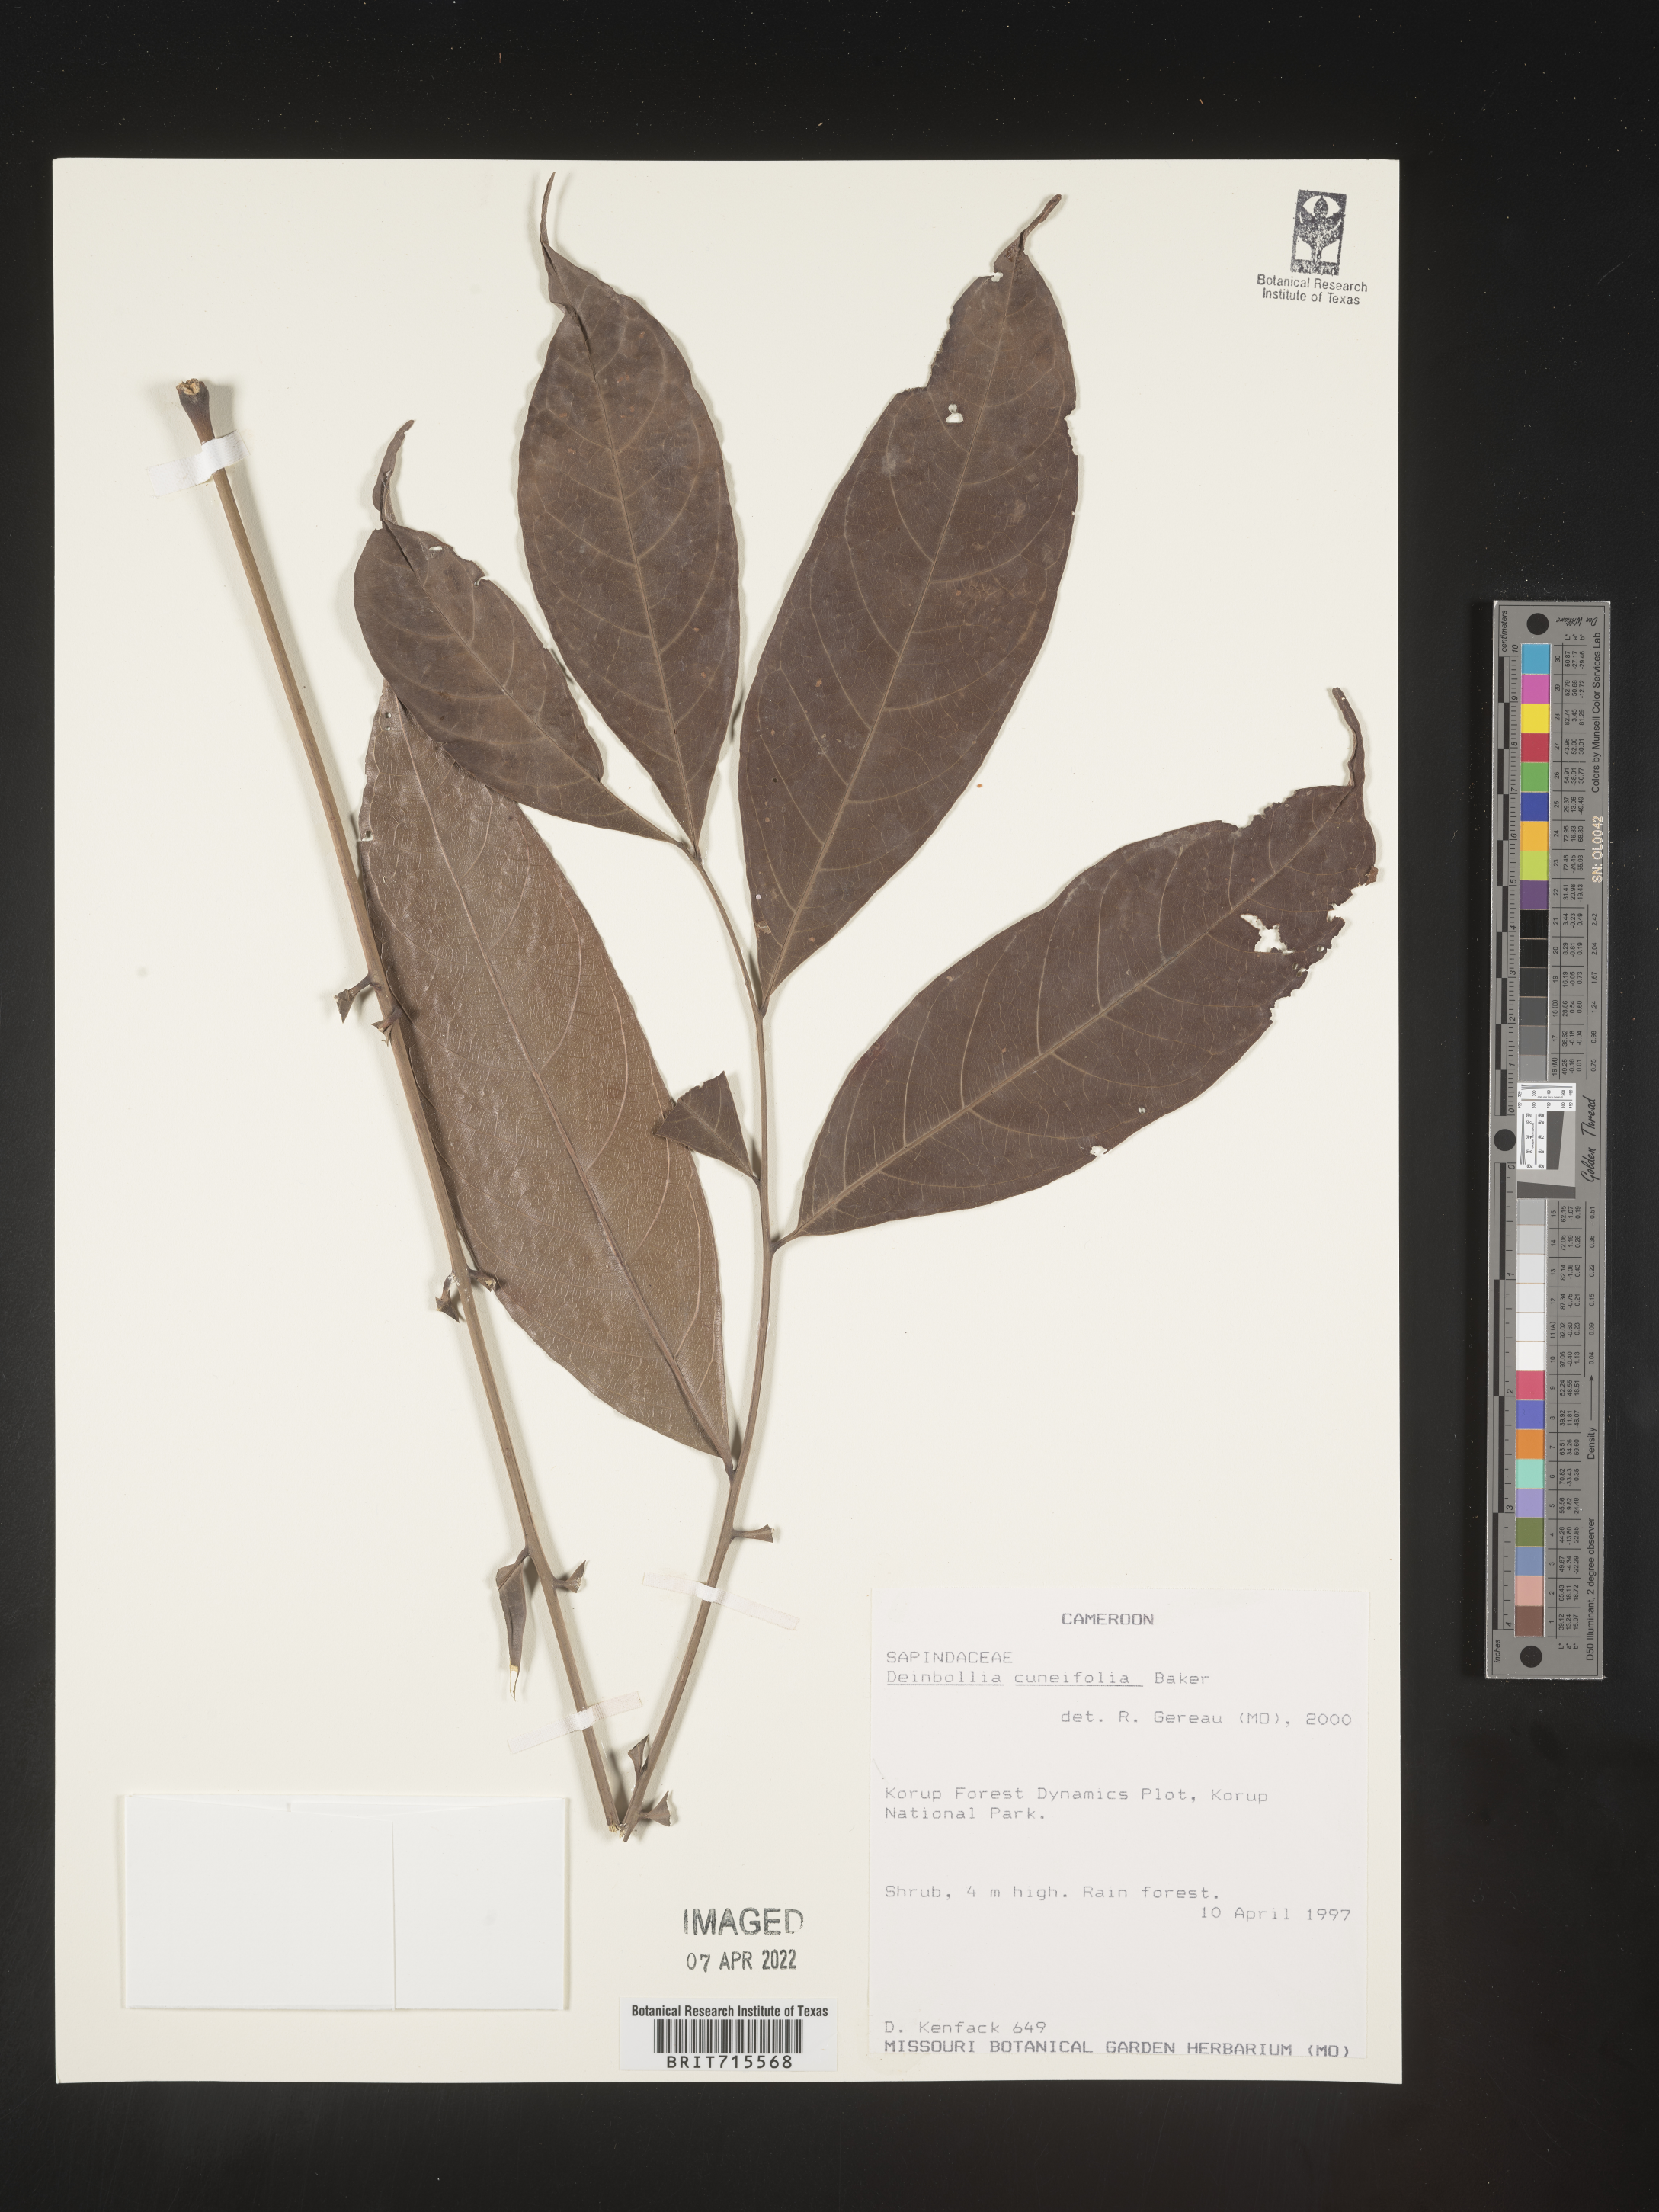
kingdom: Plantae
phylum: Tracheophyta
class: Magnoliopsida
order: Sapindales
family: Sapindaceae
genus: Deinbollia
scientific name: Deinbollia
